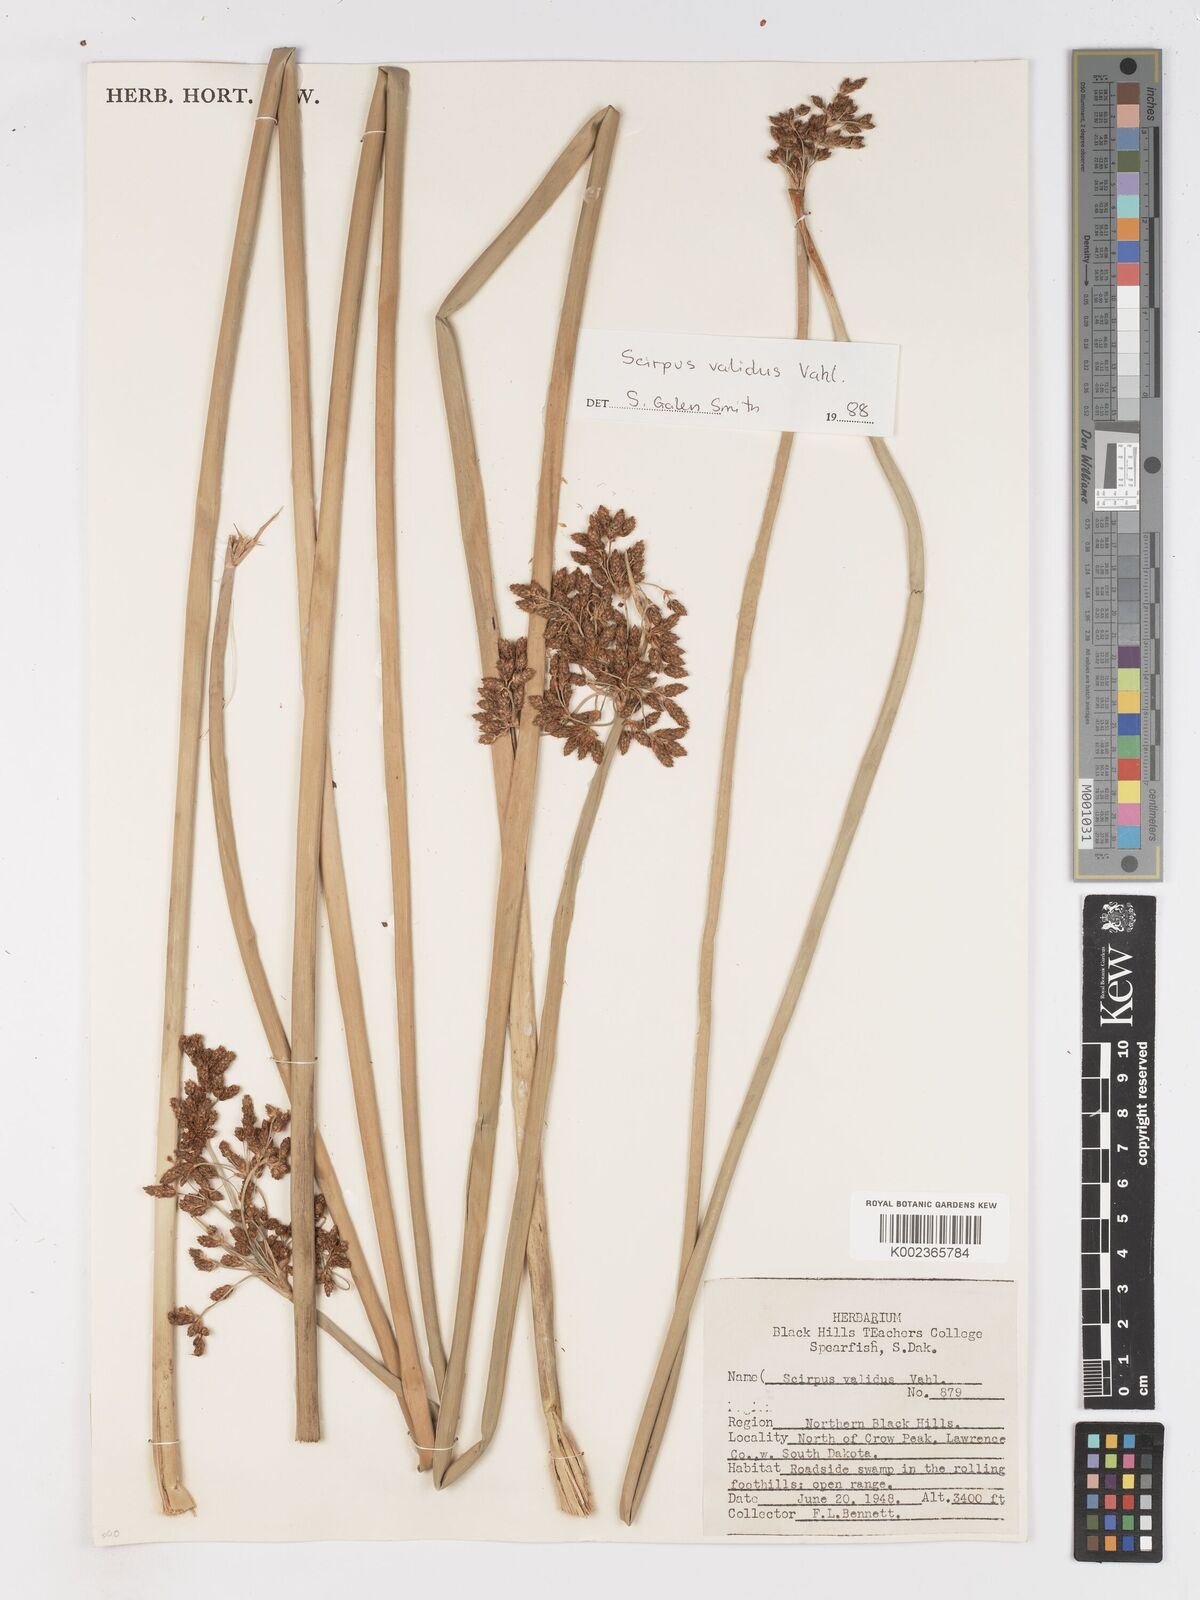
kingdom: Plantae
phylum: Tracheophyta
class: Liliopsida
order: Poales
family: Cyperaceae
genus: Schoenoplectus
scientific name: Schoenoplectus tabernaemontani
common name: Grey club-rush
